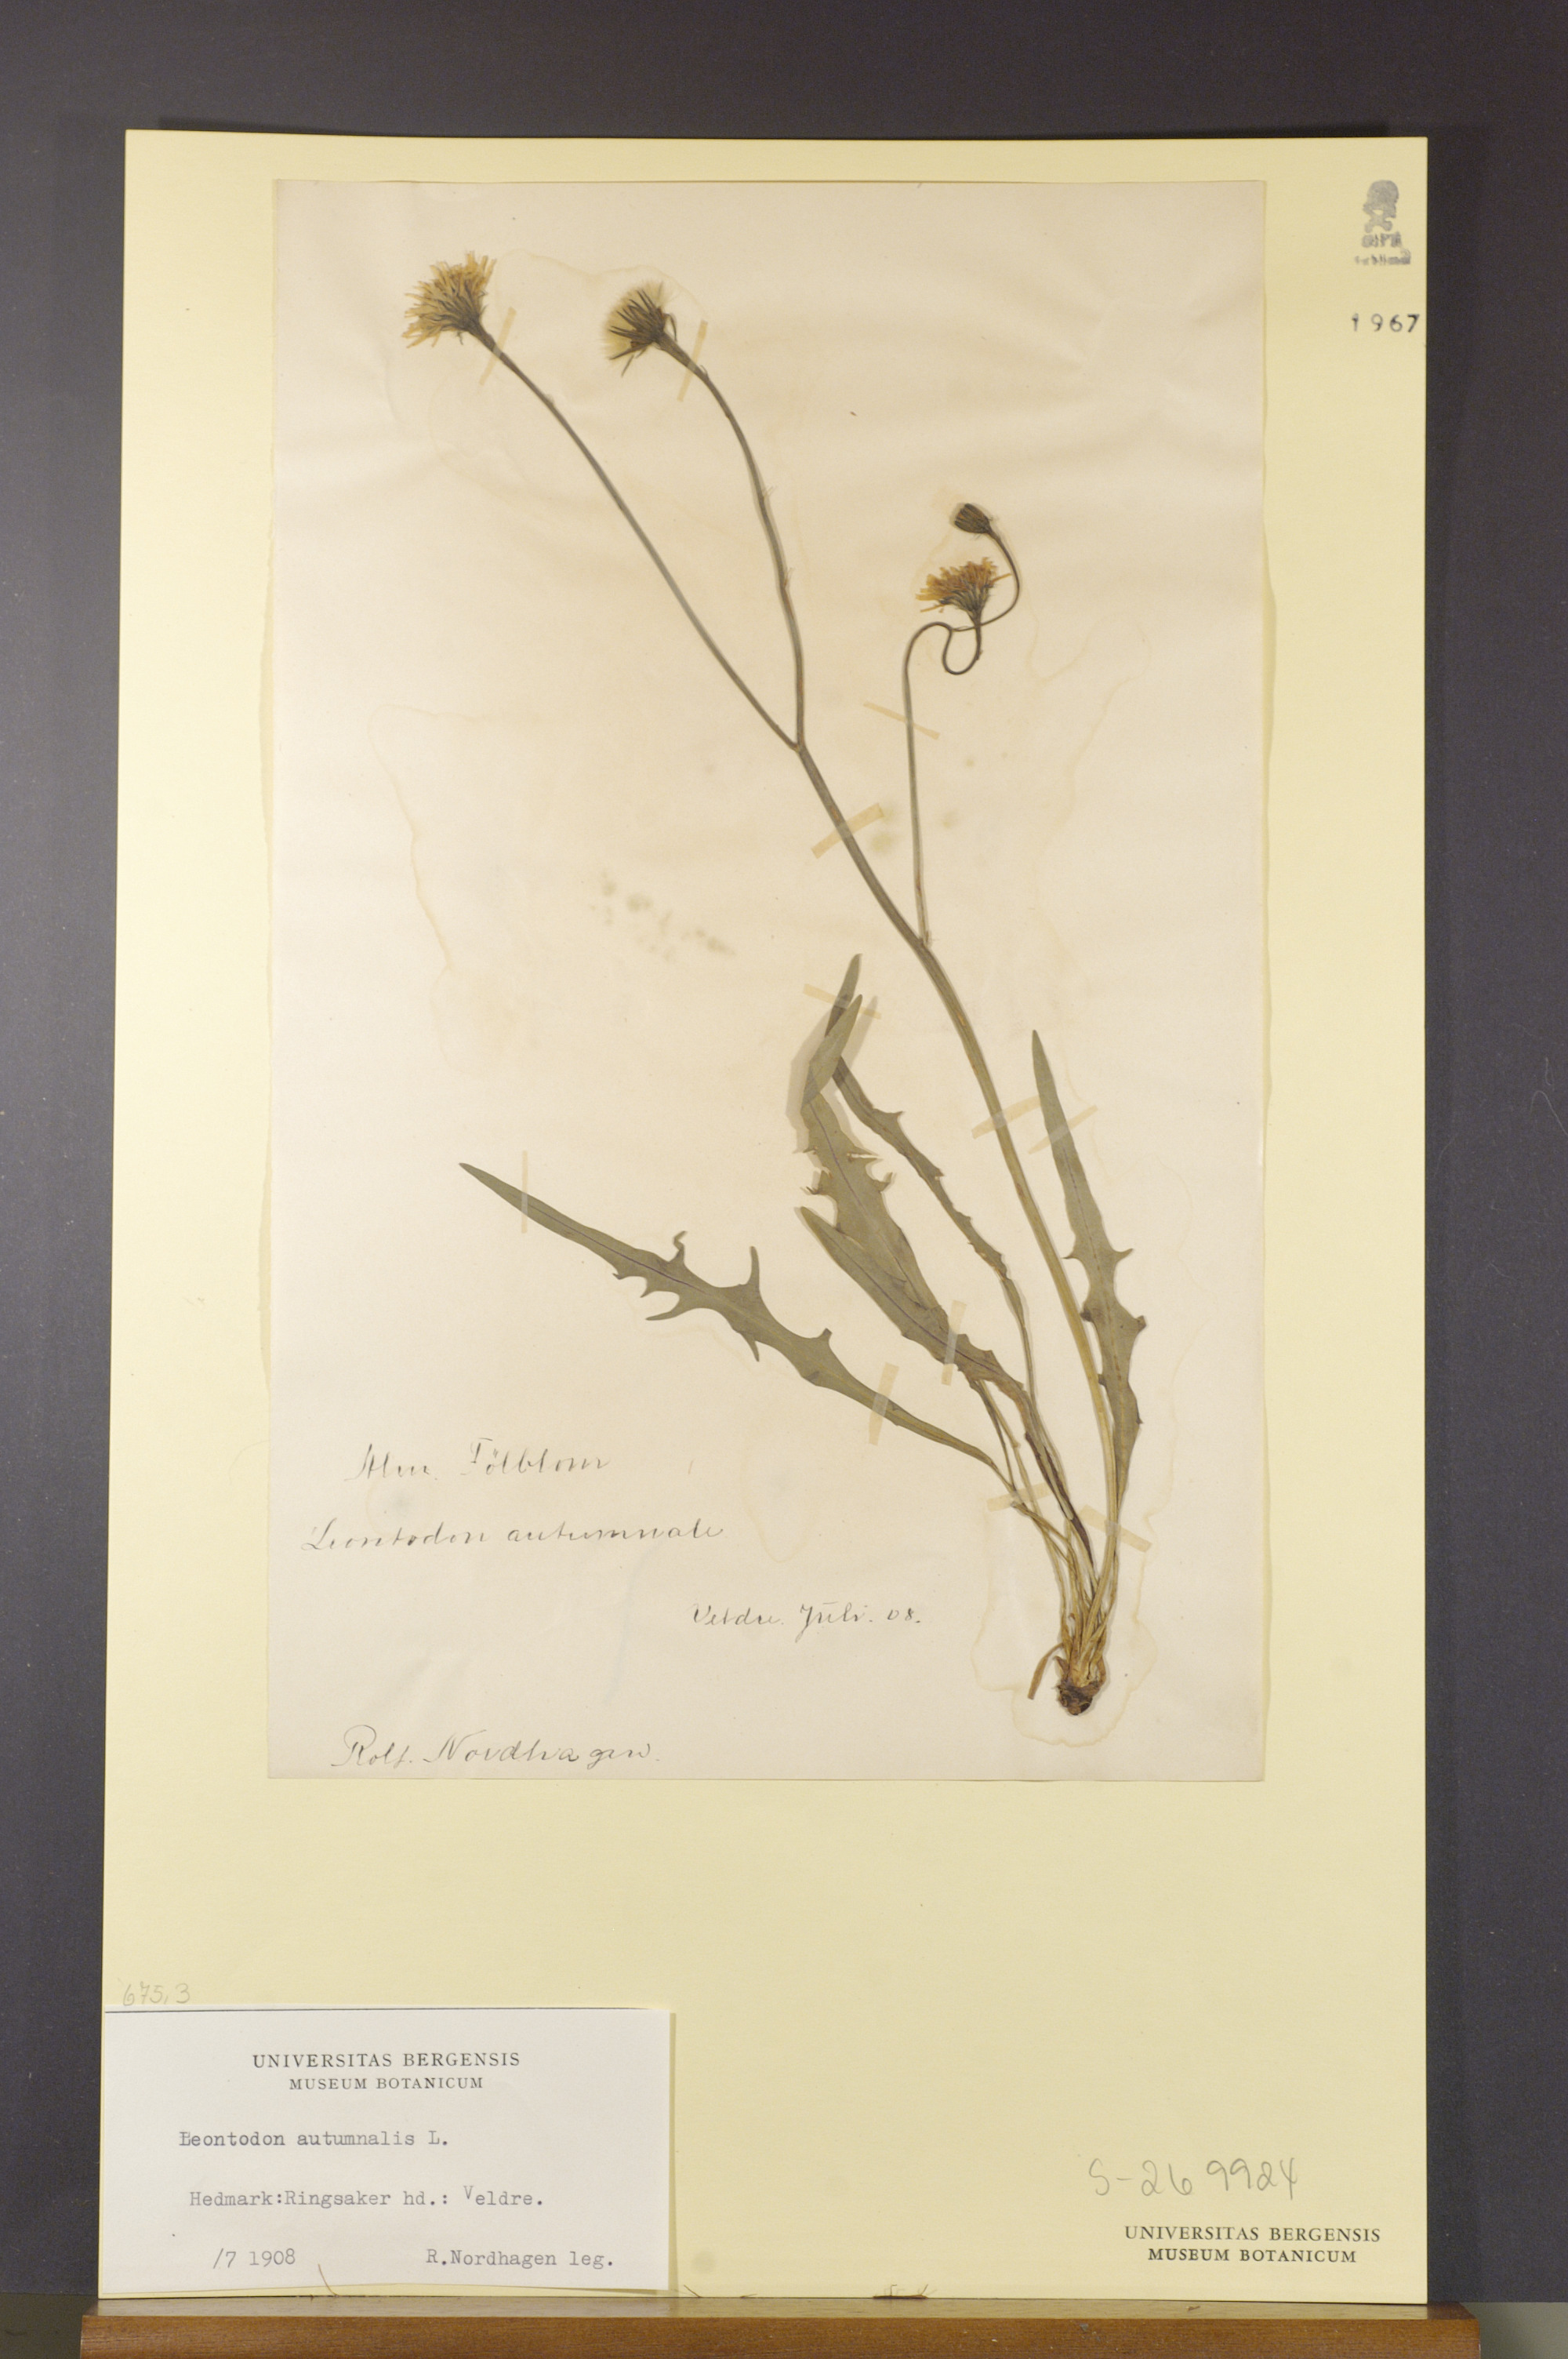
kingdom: Plantae
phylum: Tracheophyta
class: Magnoliopsida
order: Asterales
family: Asteraceae
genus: Scorzoneroides
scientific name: Scorzoneroides autumnalis
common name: Autumn hawkbit
